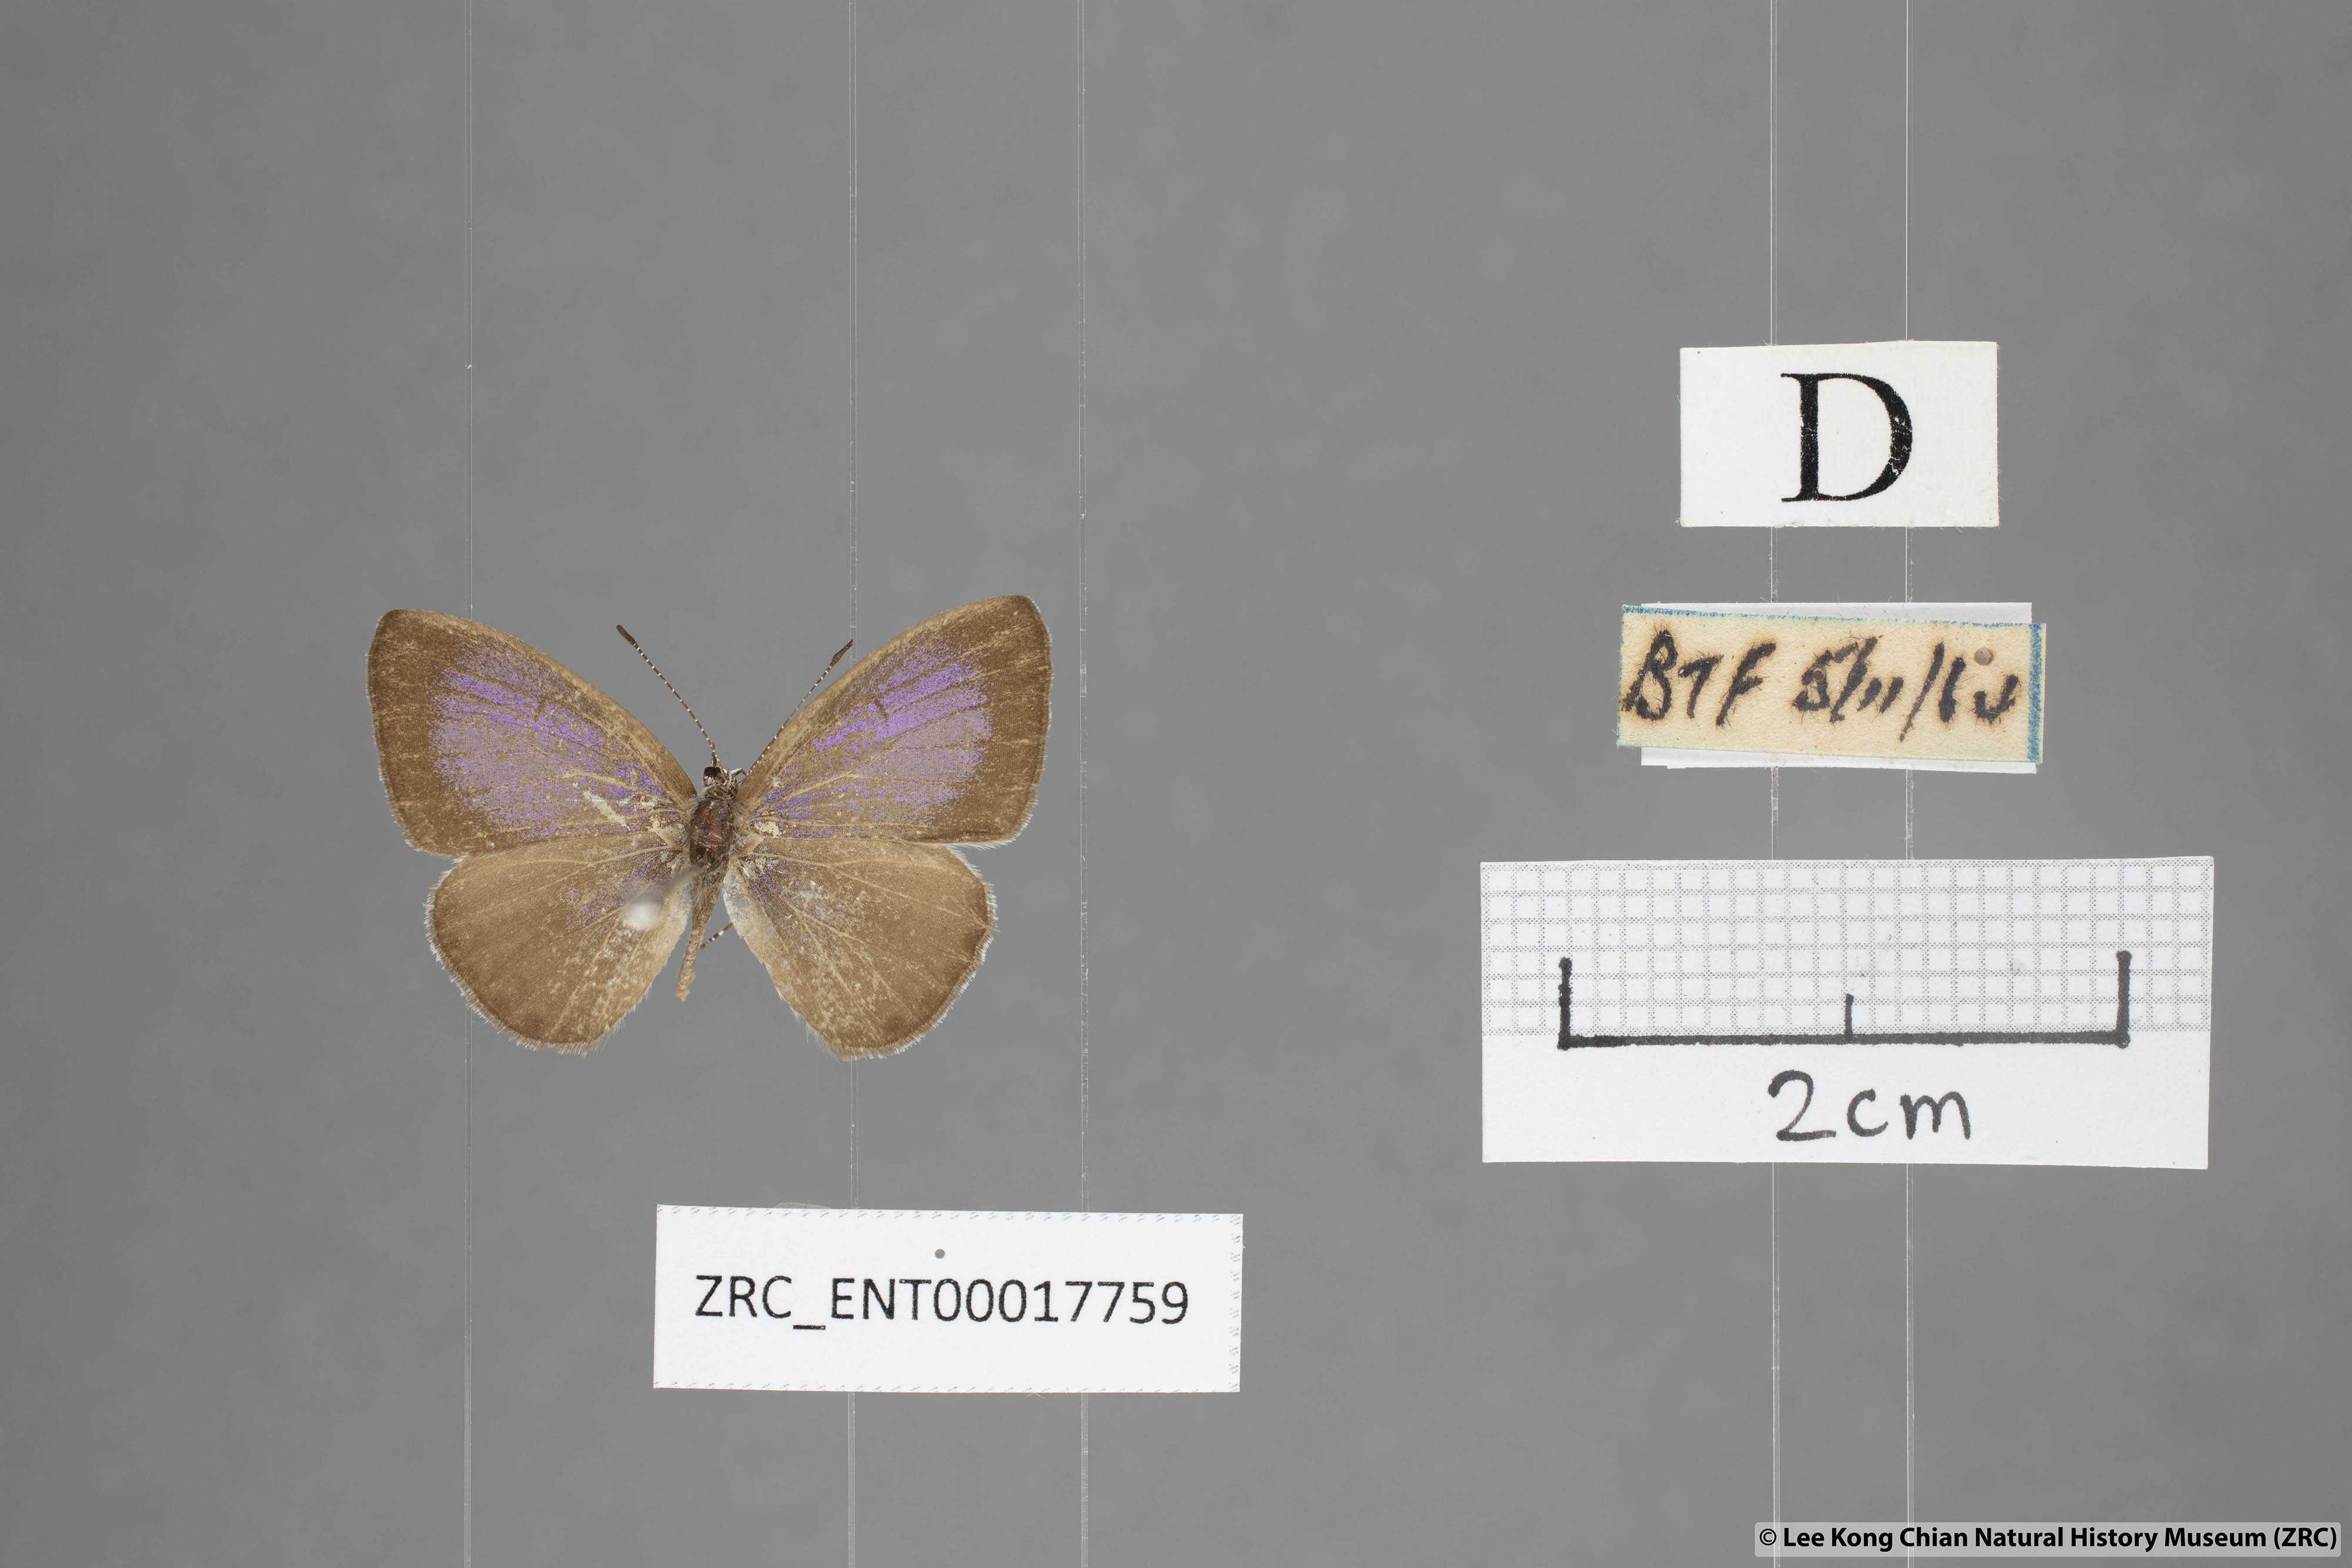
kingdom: Animalia
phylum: Arthropoda
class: Insecta
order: Lepidoptera
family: Lycaenidae
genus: Udara
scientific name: Udara
